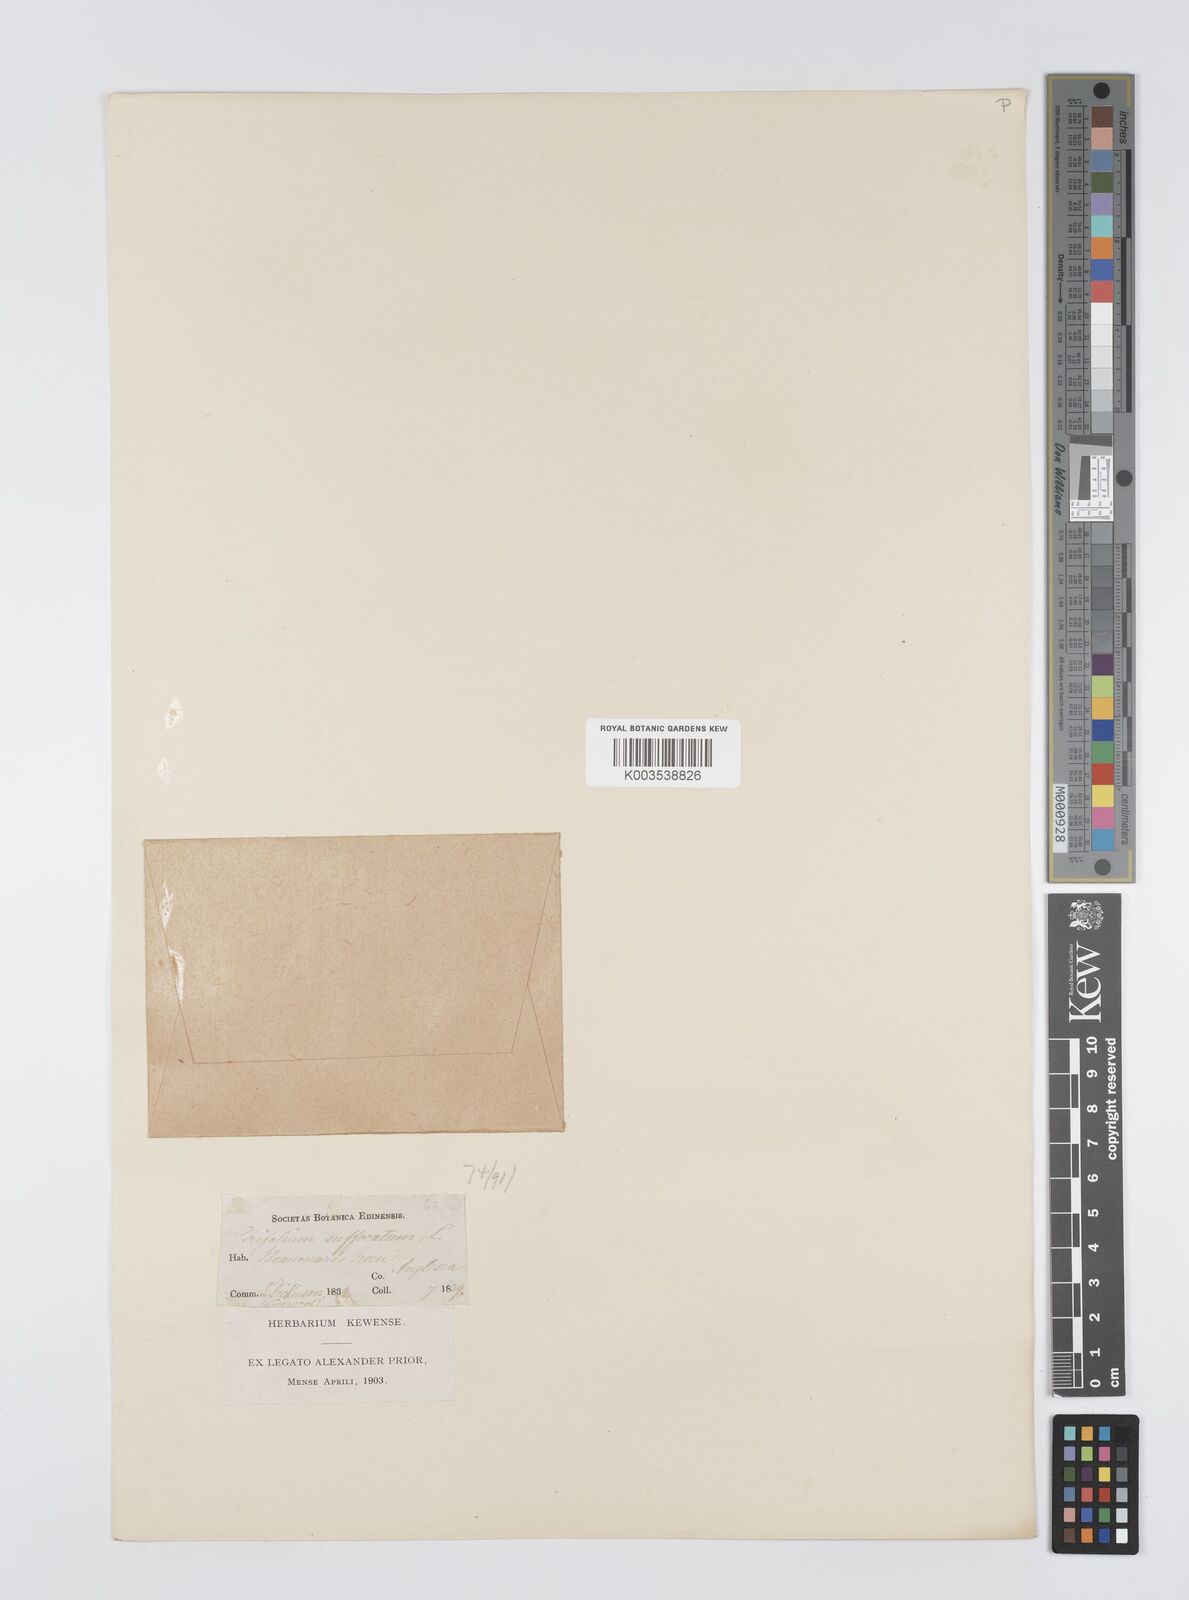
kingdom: Plantae
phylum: Tracheophyta
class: Magnoliopsida
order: Fabales
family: Fabaceae
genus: Trifolium
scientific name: Trifolium suffocatum
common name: Suffocated clover
